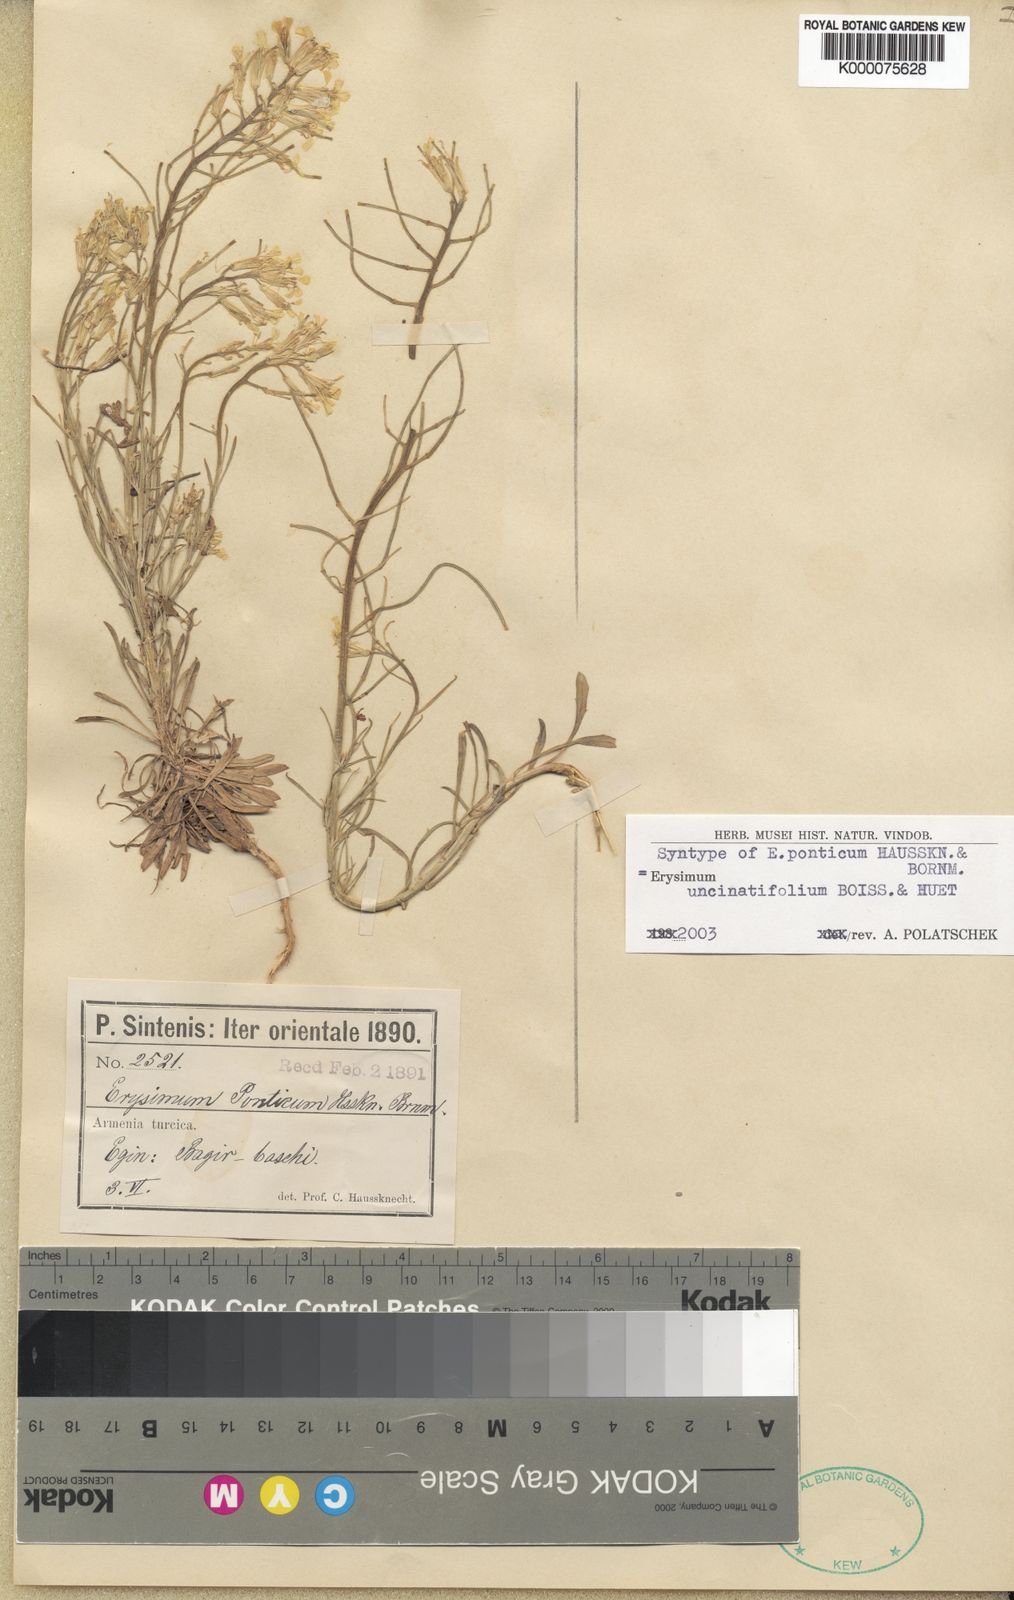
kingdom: Plantae
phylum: Tracheophyta
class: Magnoliopsida
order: Brassicales
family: Brassicaceae
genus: Erysimum
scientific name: Erysimum pycnophyllum
